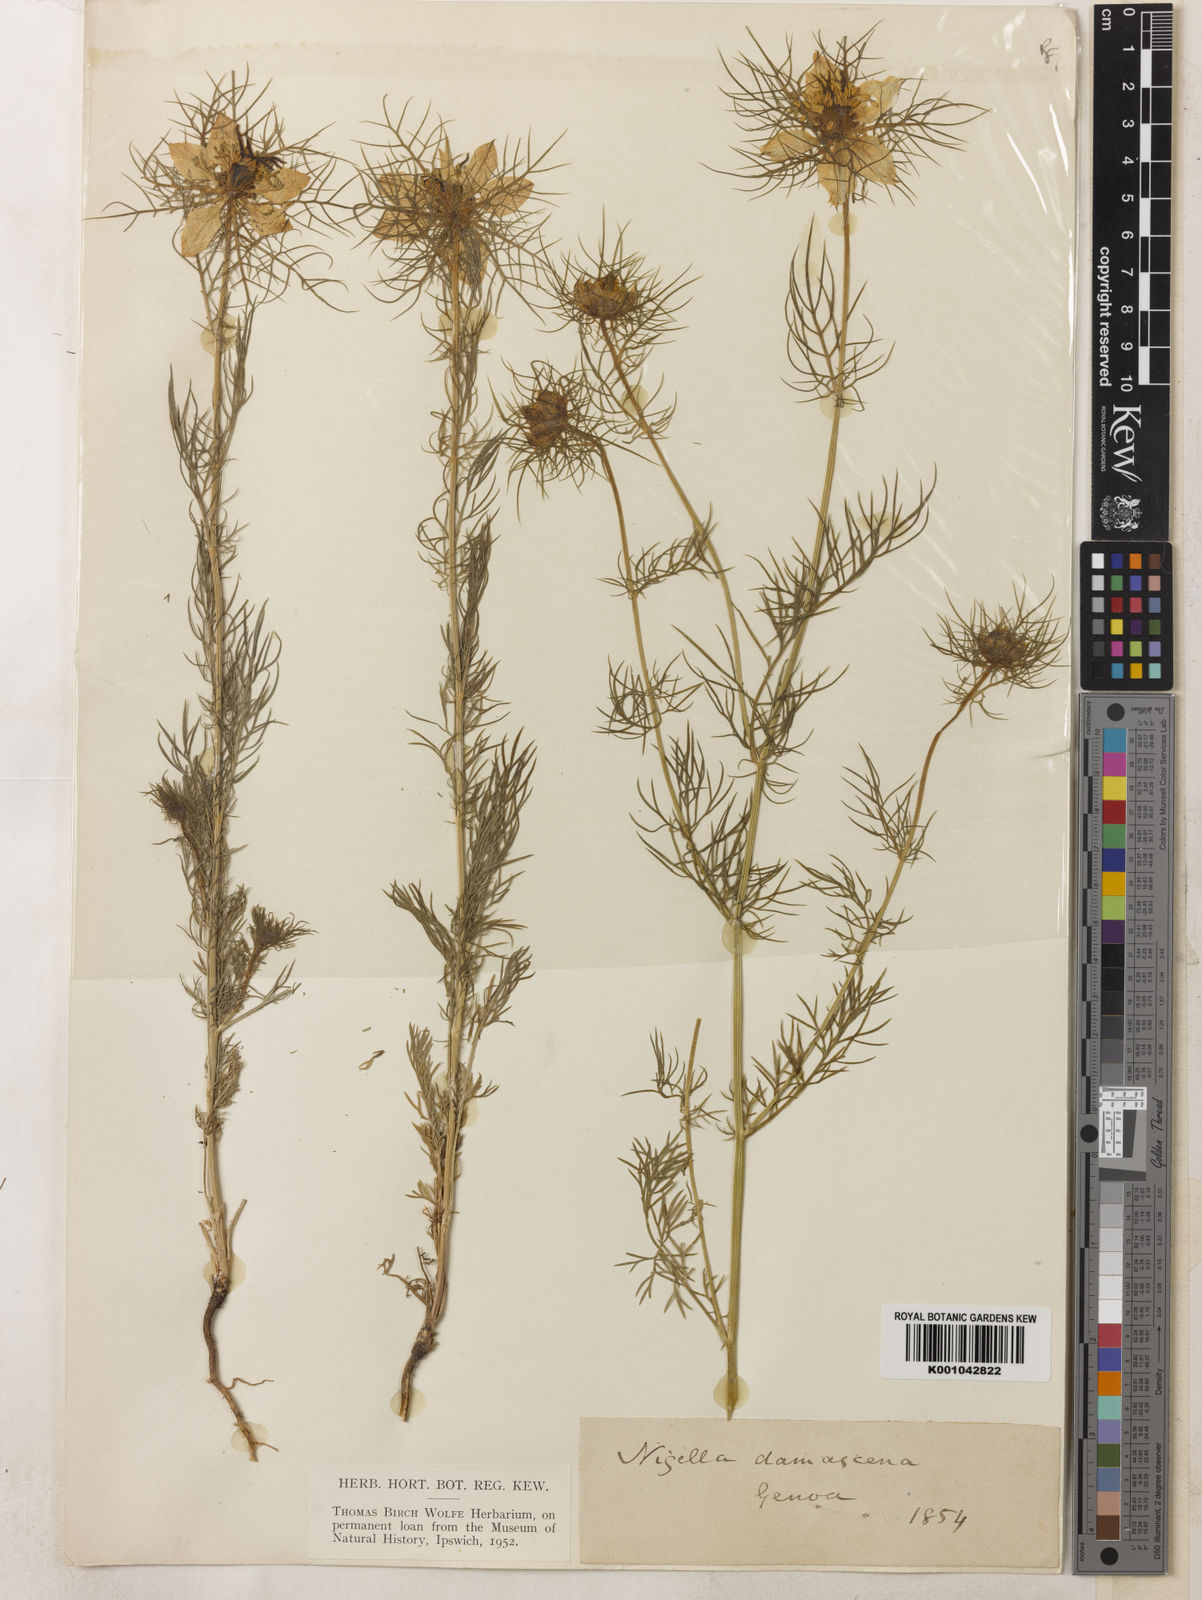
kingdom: Plantae
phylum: Tracheophyta
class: Magnoliopsida
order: Ranunculales
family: Ranunculaceae
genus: Nigella
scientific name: Nigella damascena
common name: Love-in-a-mist
